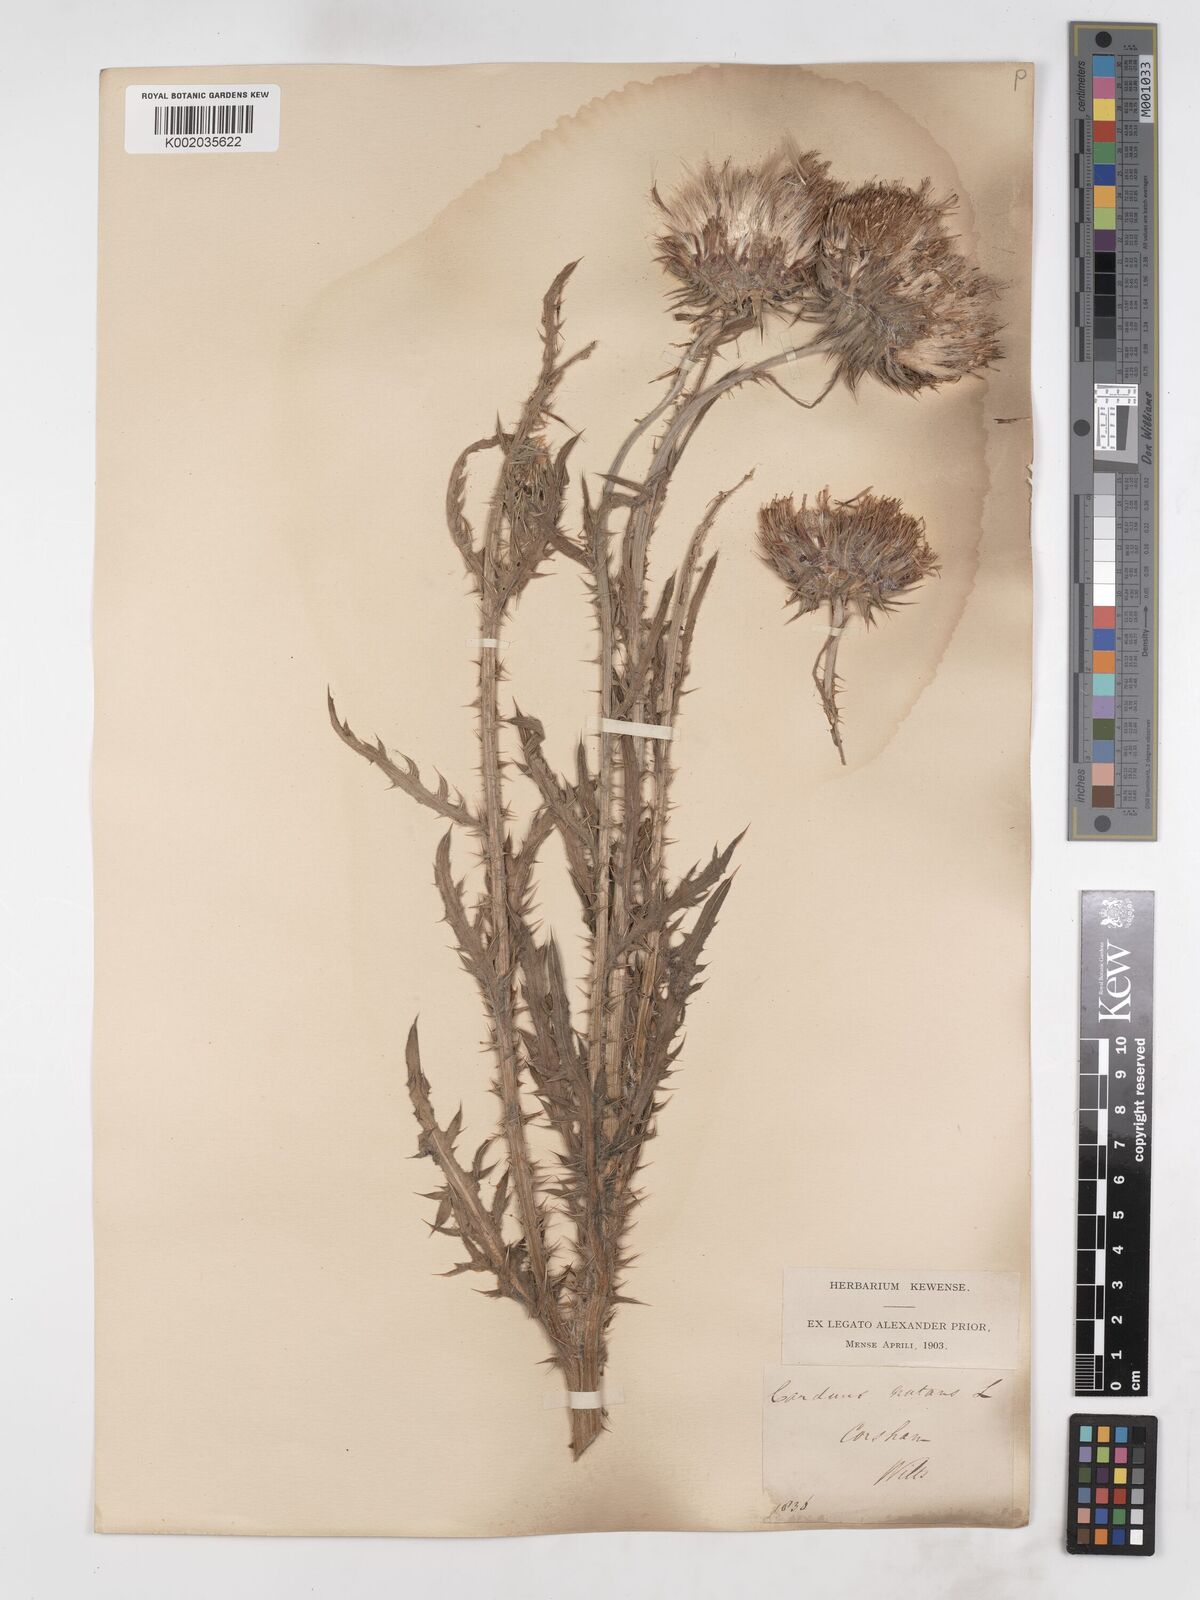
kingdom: Plantae
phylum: Tracheophyta
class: Magnoliopsida
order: Asterales
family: Asteraceae
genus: Carduus
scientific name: Carduus nutans
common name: Musk thistle
